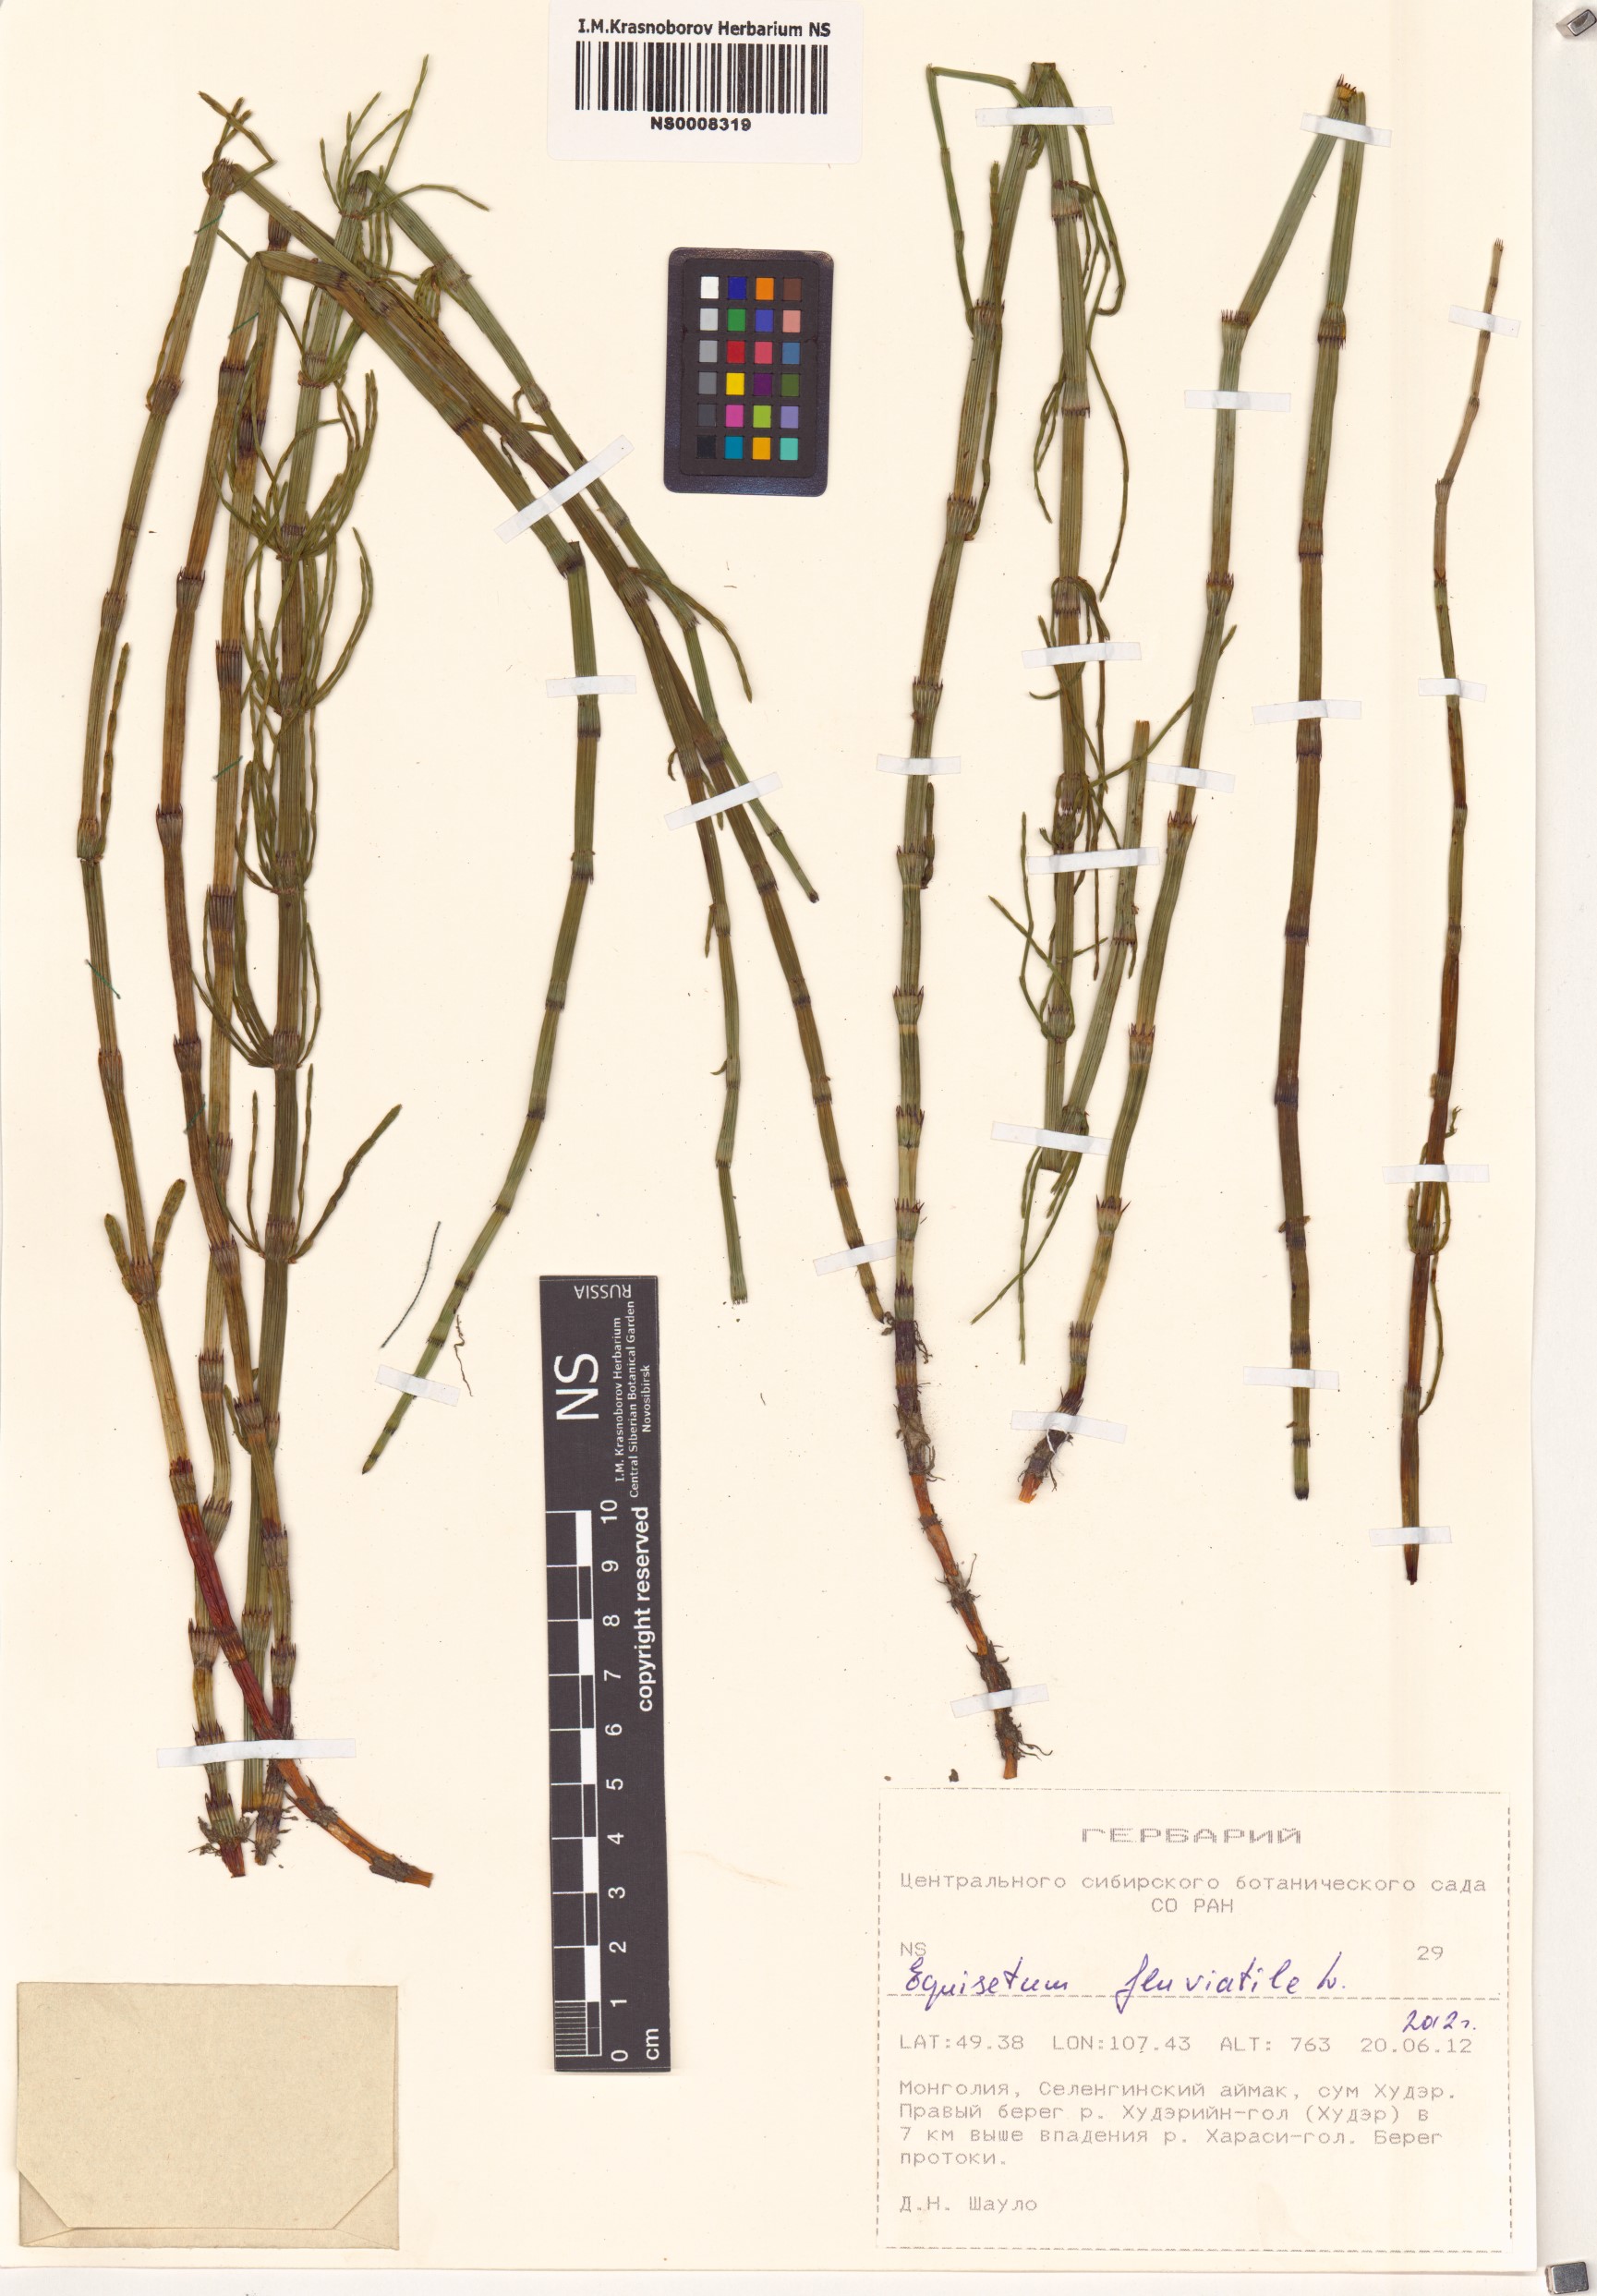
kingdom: Plantae
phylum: Tracheophyta
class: Polypodiopsida
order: Equisetales
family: Equisetaceae
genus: Equisetum
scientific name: Equisetum fluviatile
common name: Water horsetail
